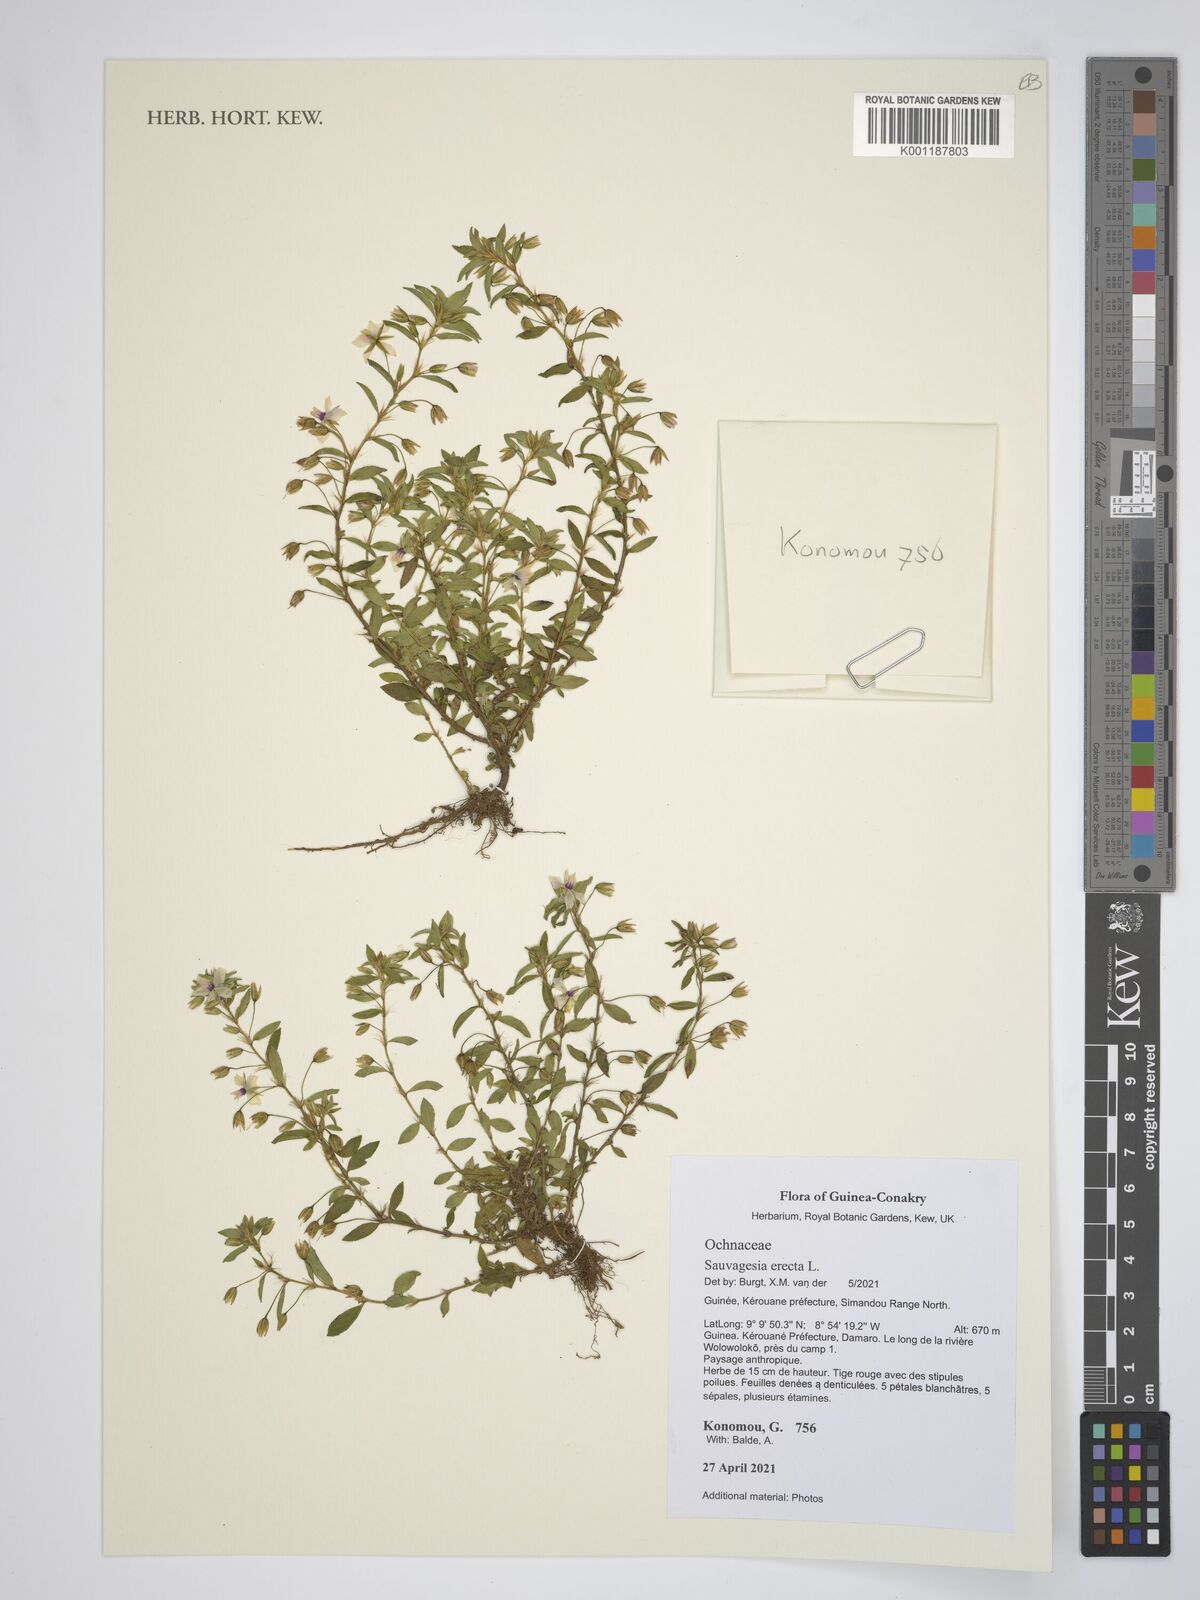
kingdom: Plantae
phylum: Tracheophyta
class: Magnoliopsida
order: Malpighiales
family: Ochnaceae
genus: Sauvagesia
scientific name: Sauvagesia erecta
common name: Creole tea
